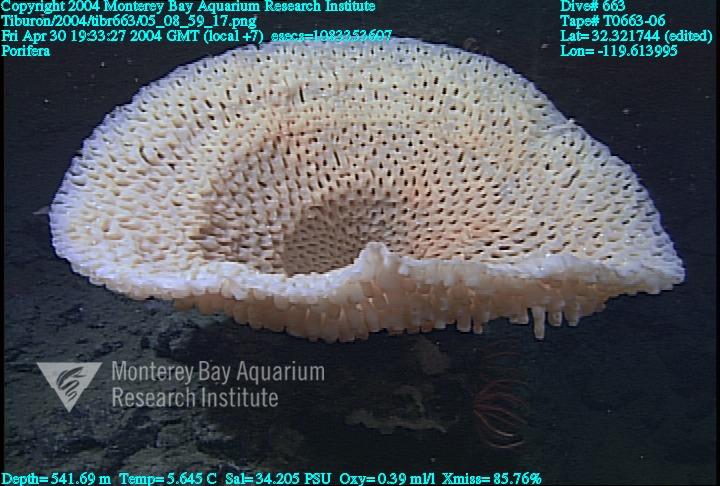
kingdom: Animalia
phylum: Porifera
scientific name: Porifera
